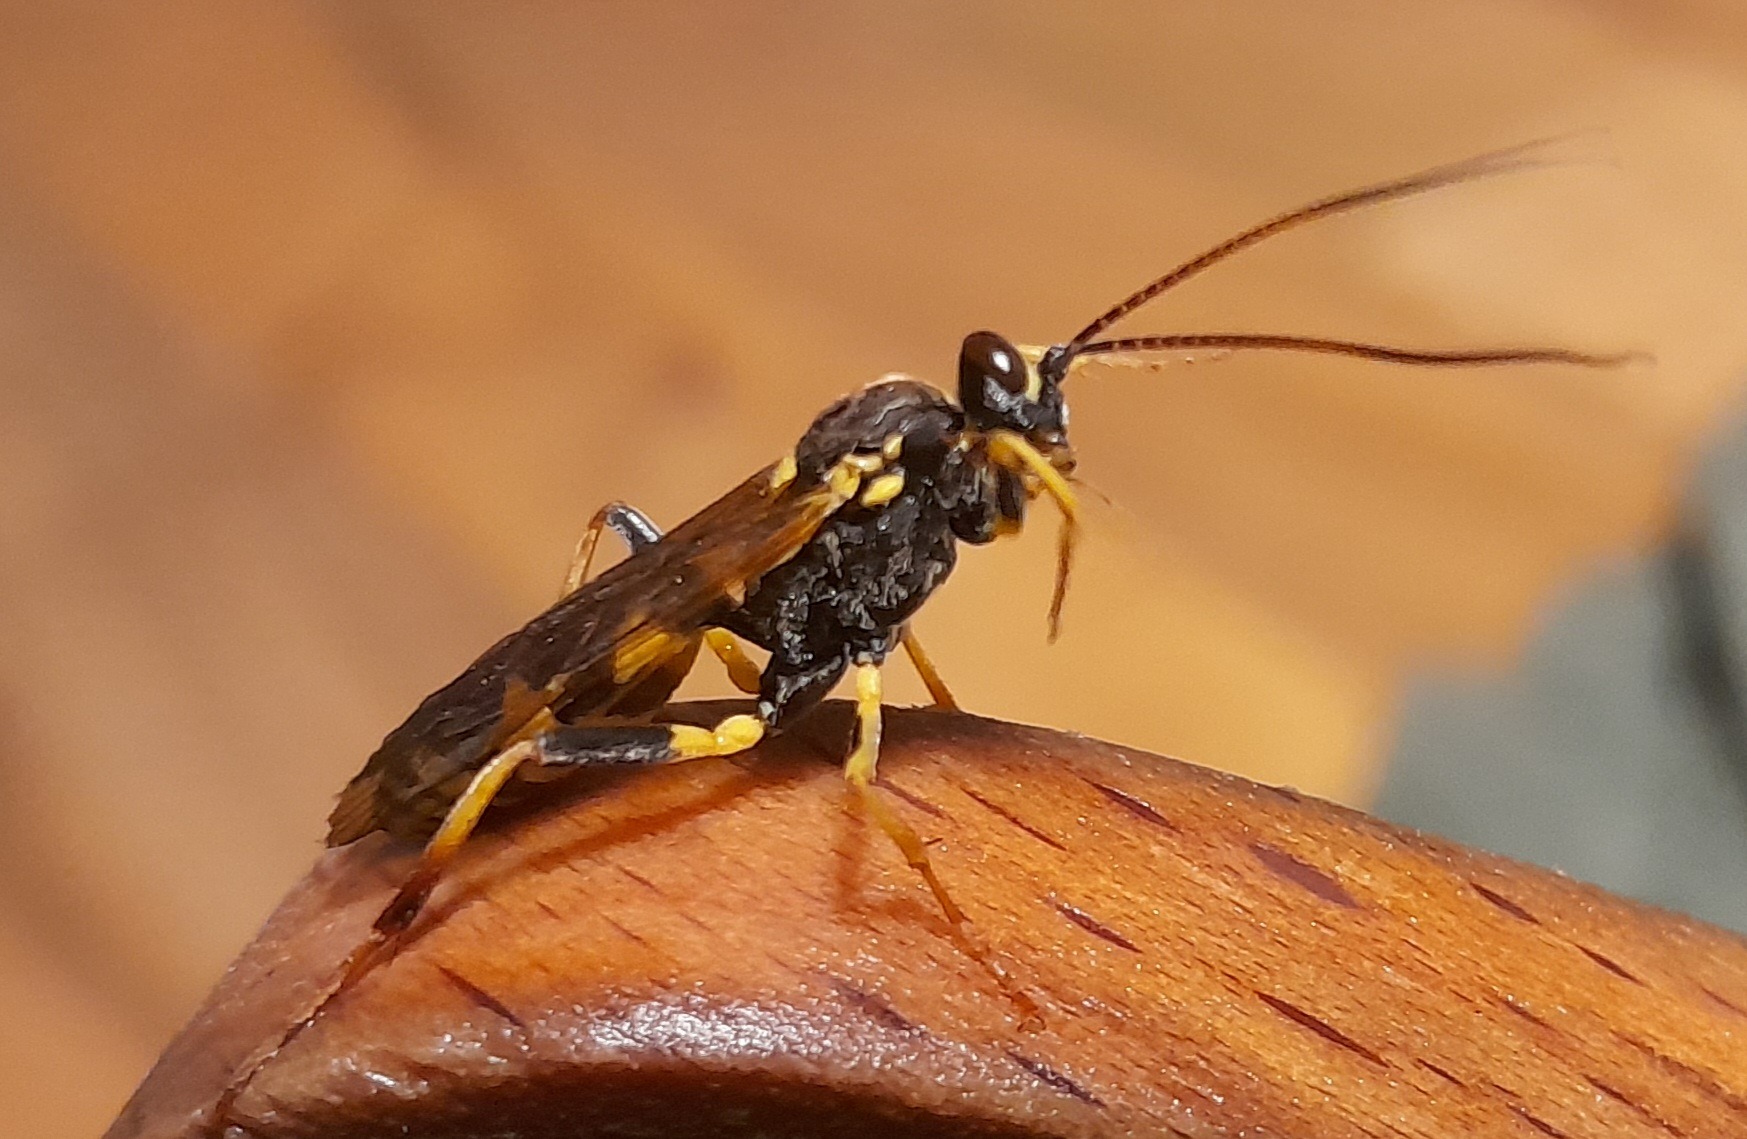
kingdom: Animalia
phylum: Arthropoda
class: Insecta
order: Hymenoptera
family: Ichneumonidae
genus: Amblyteles
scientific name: Amblyteles armatorius
